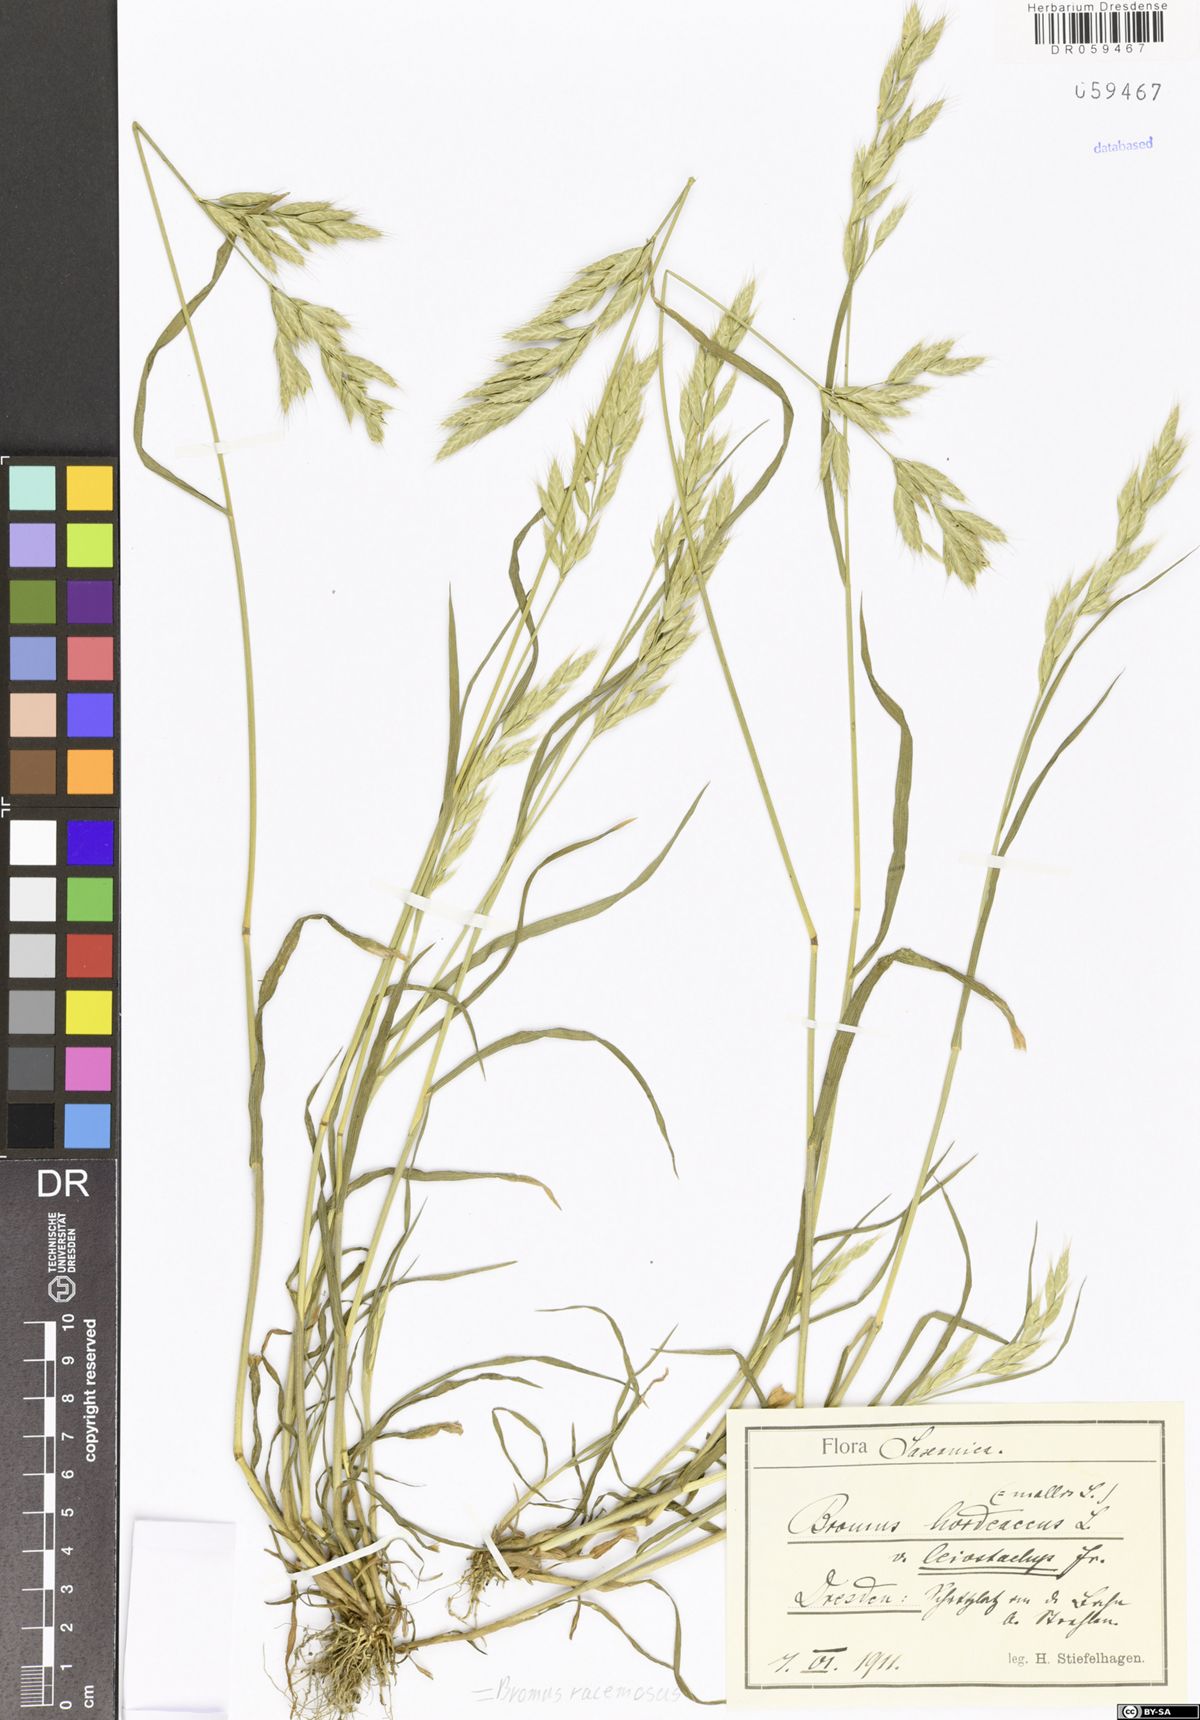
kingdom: Plantae
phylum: Tracheophyta
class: Liliopsida
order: Poales
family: Poaceae
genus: Bromus
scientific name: Bromus racemosus
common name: Bald brome
